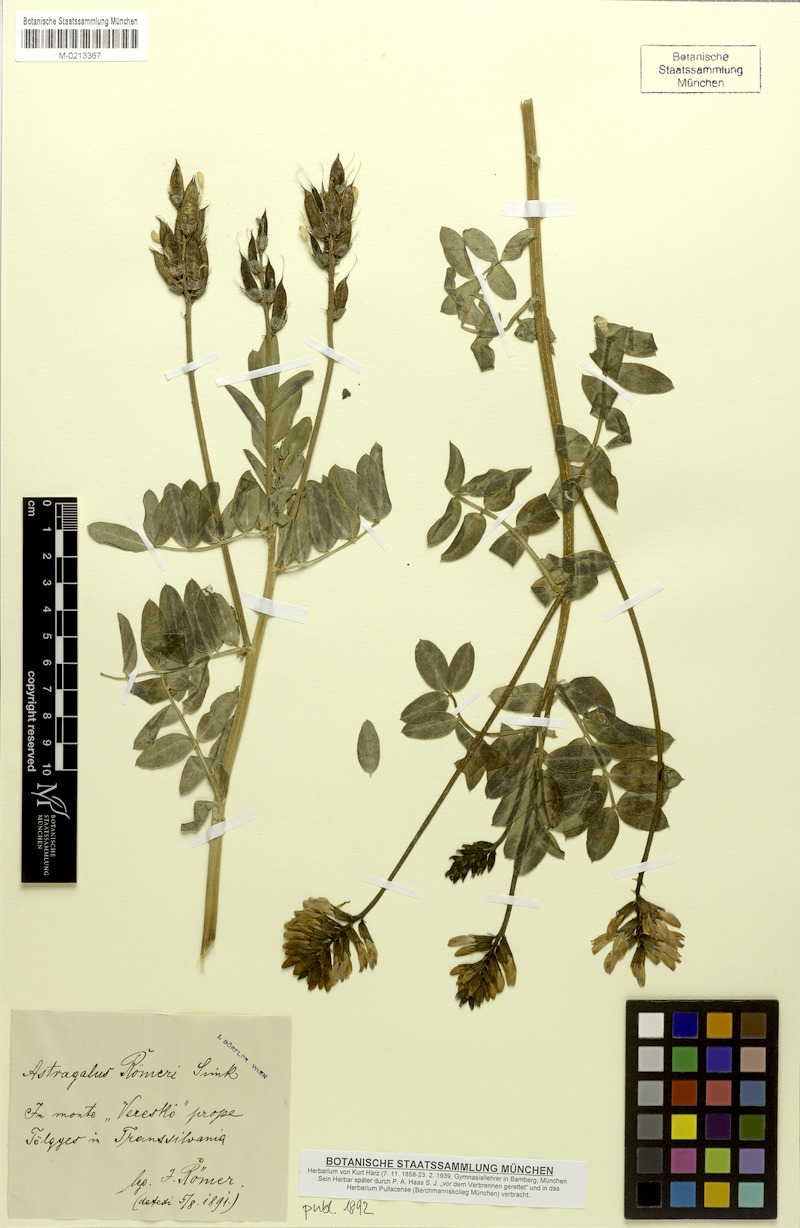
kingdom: Plantae
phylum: Tracheophyta
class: Magnoliopsida
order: Fabales
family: Fabaceae
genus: Astragalus
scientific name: Astragalus roemeri
